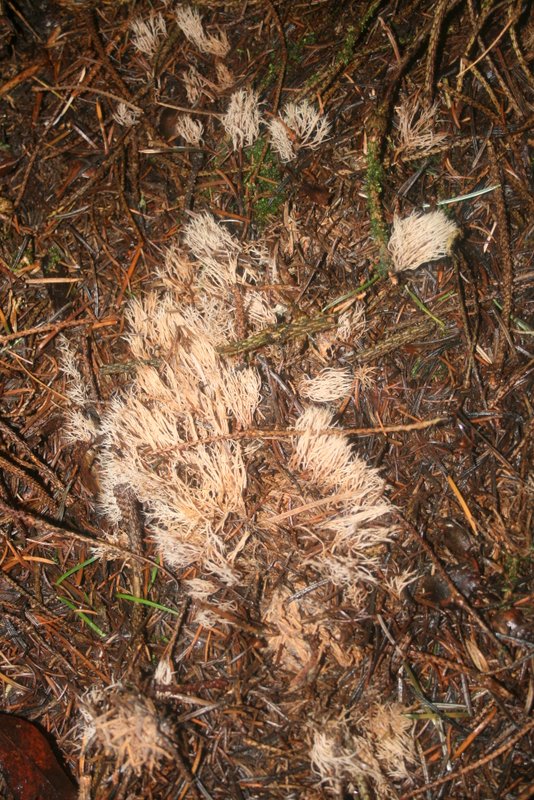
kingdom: Fungi
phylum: Basidiomycota
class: Agaricomycetes
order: Agaricales
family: Pterulaceae
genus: Pterula
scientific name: Pterula multifida
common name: busket fjerkølle
